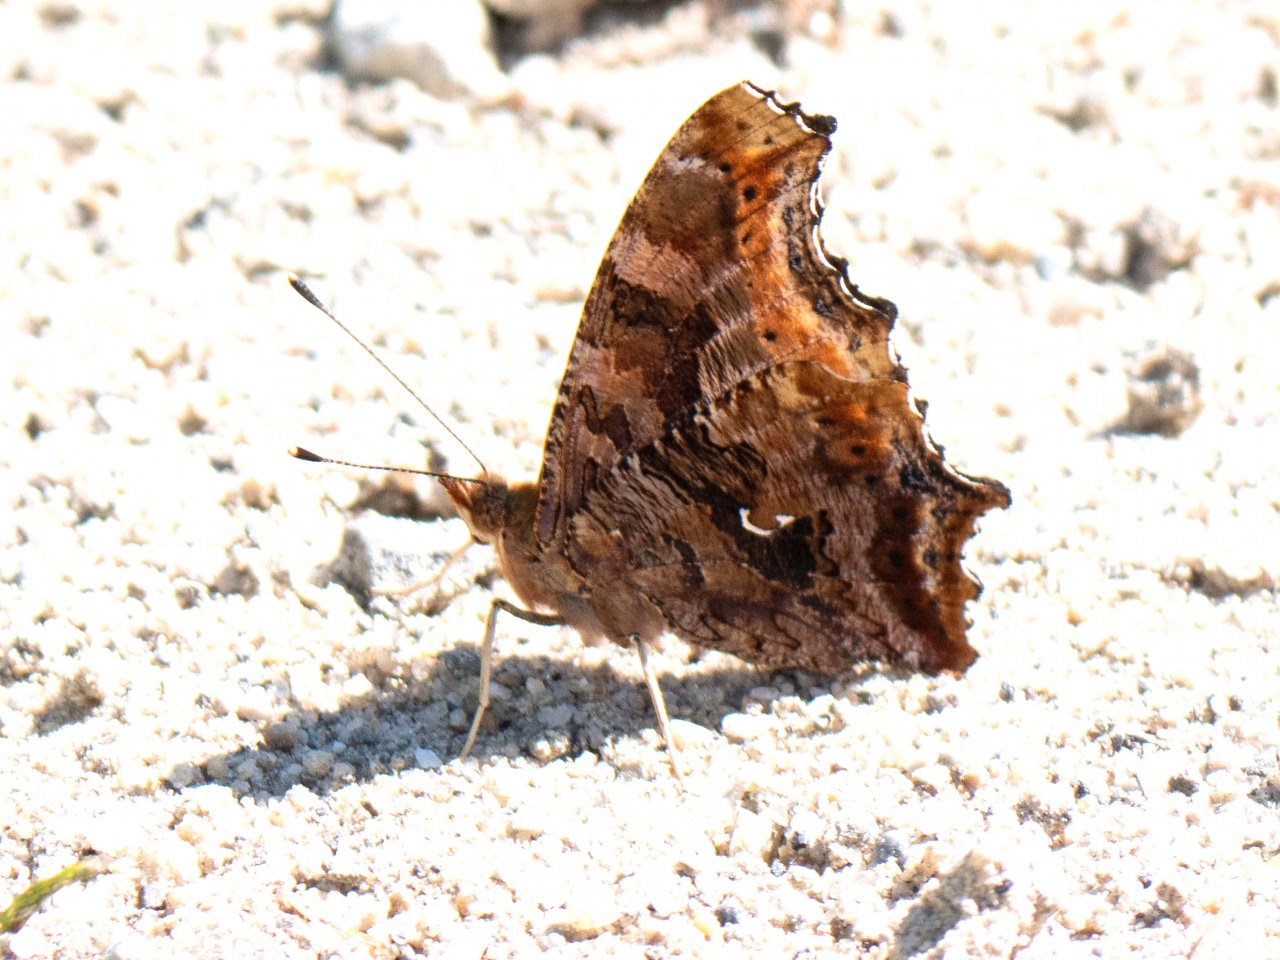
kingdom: Animalia
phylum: Arthropoda
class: Insecta
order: Lepidoptera
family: Nymphalidae
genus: Polygonia
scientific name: Polygonia comma
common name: Eastern Comma
